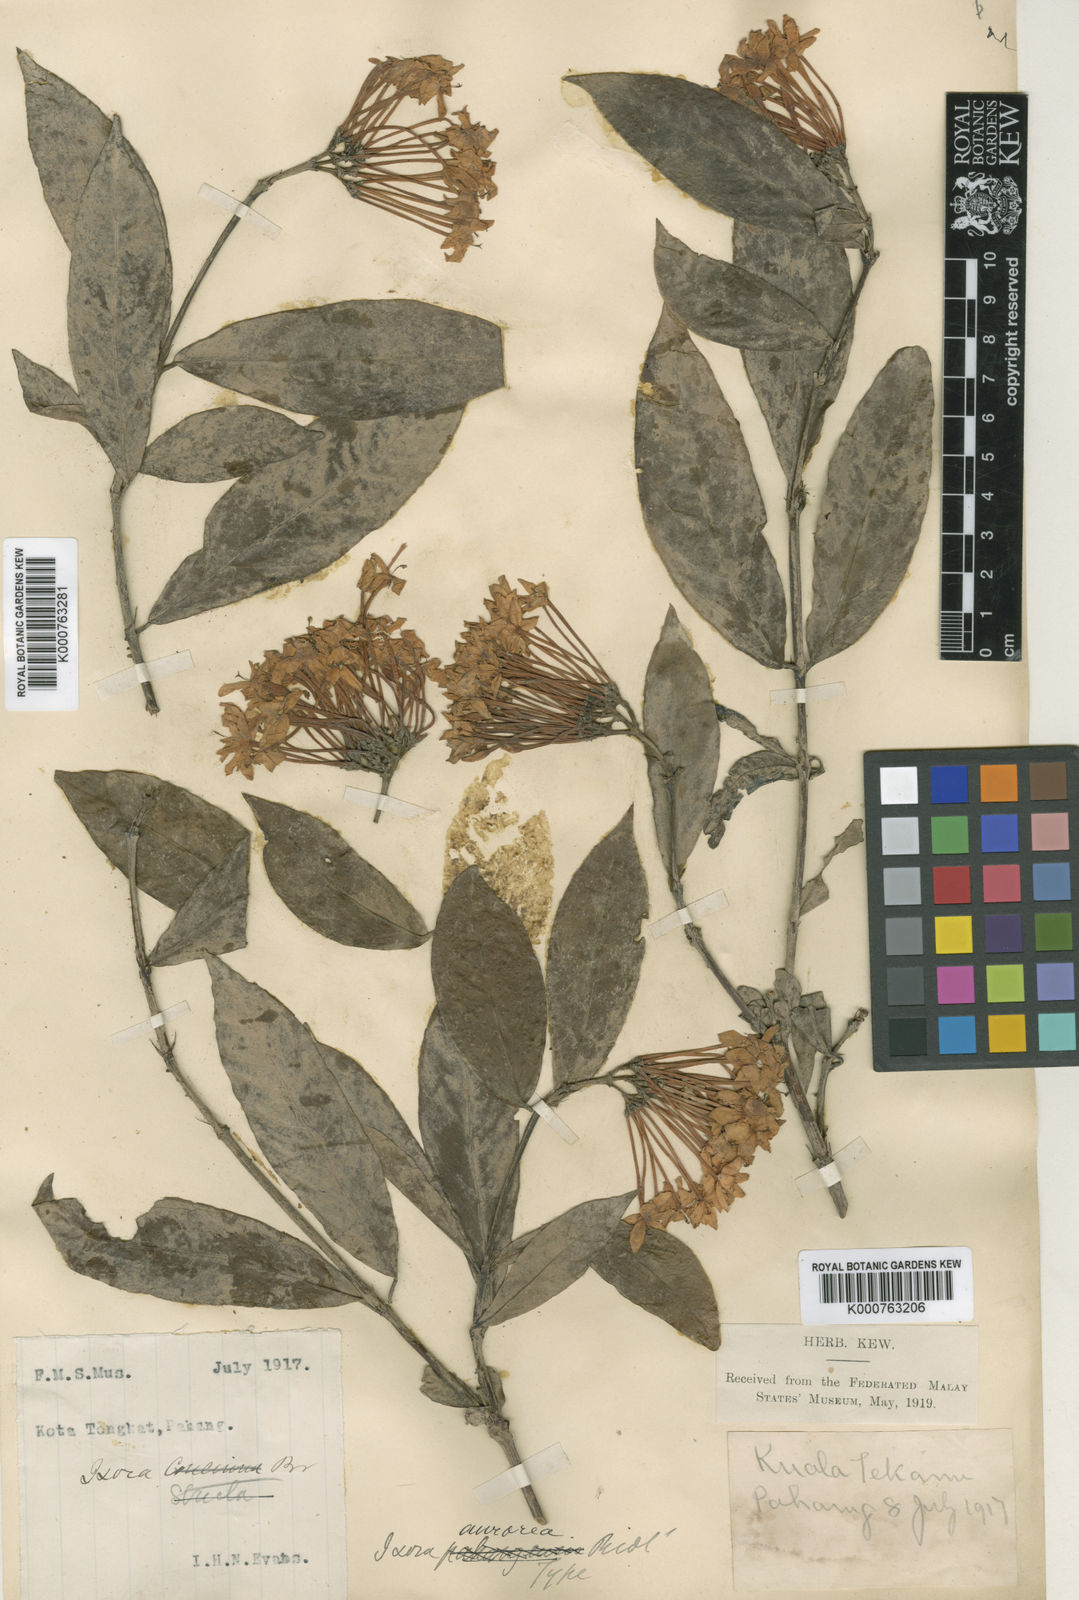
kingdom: Plantae
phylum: Tracheophyta
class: Magnoliopsida
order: Gentianales
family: Rubiaceae
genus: Ixora
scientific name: Ixora aurorea
